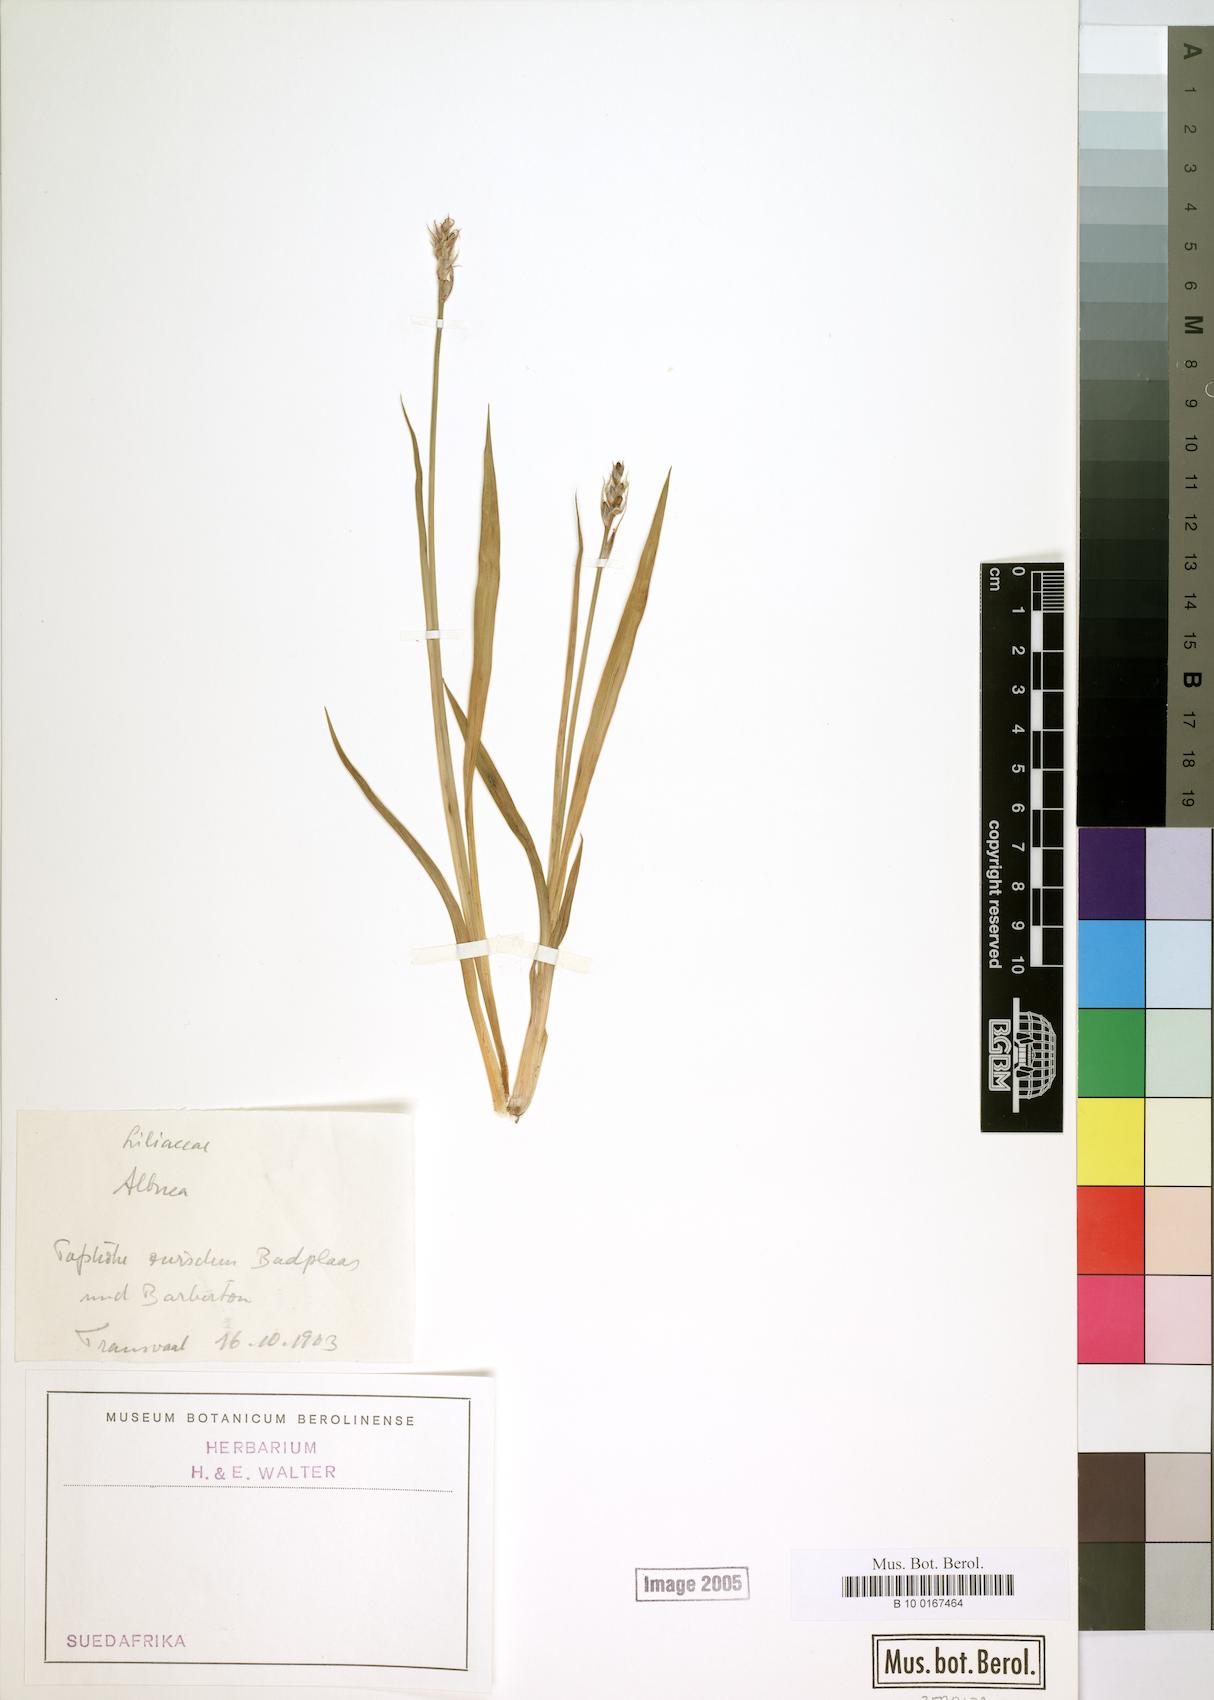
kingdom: Plantae
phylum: Tracheophyta
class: Liliopsida
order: Asparagales
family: Asparagaceae
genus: Albuca
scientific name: Albuca
